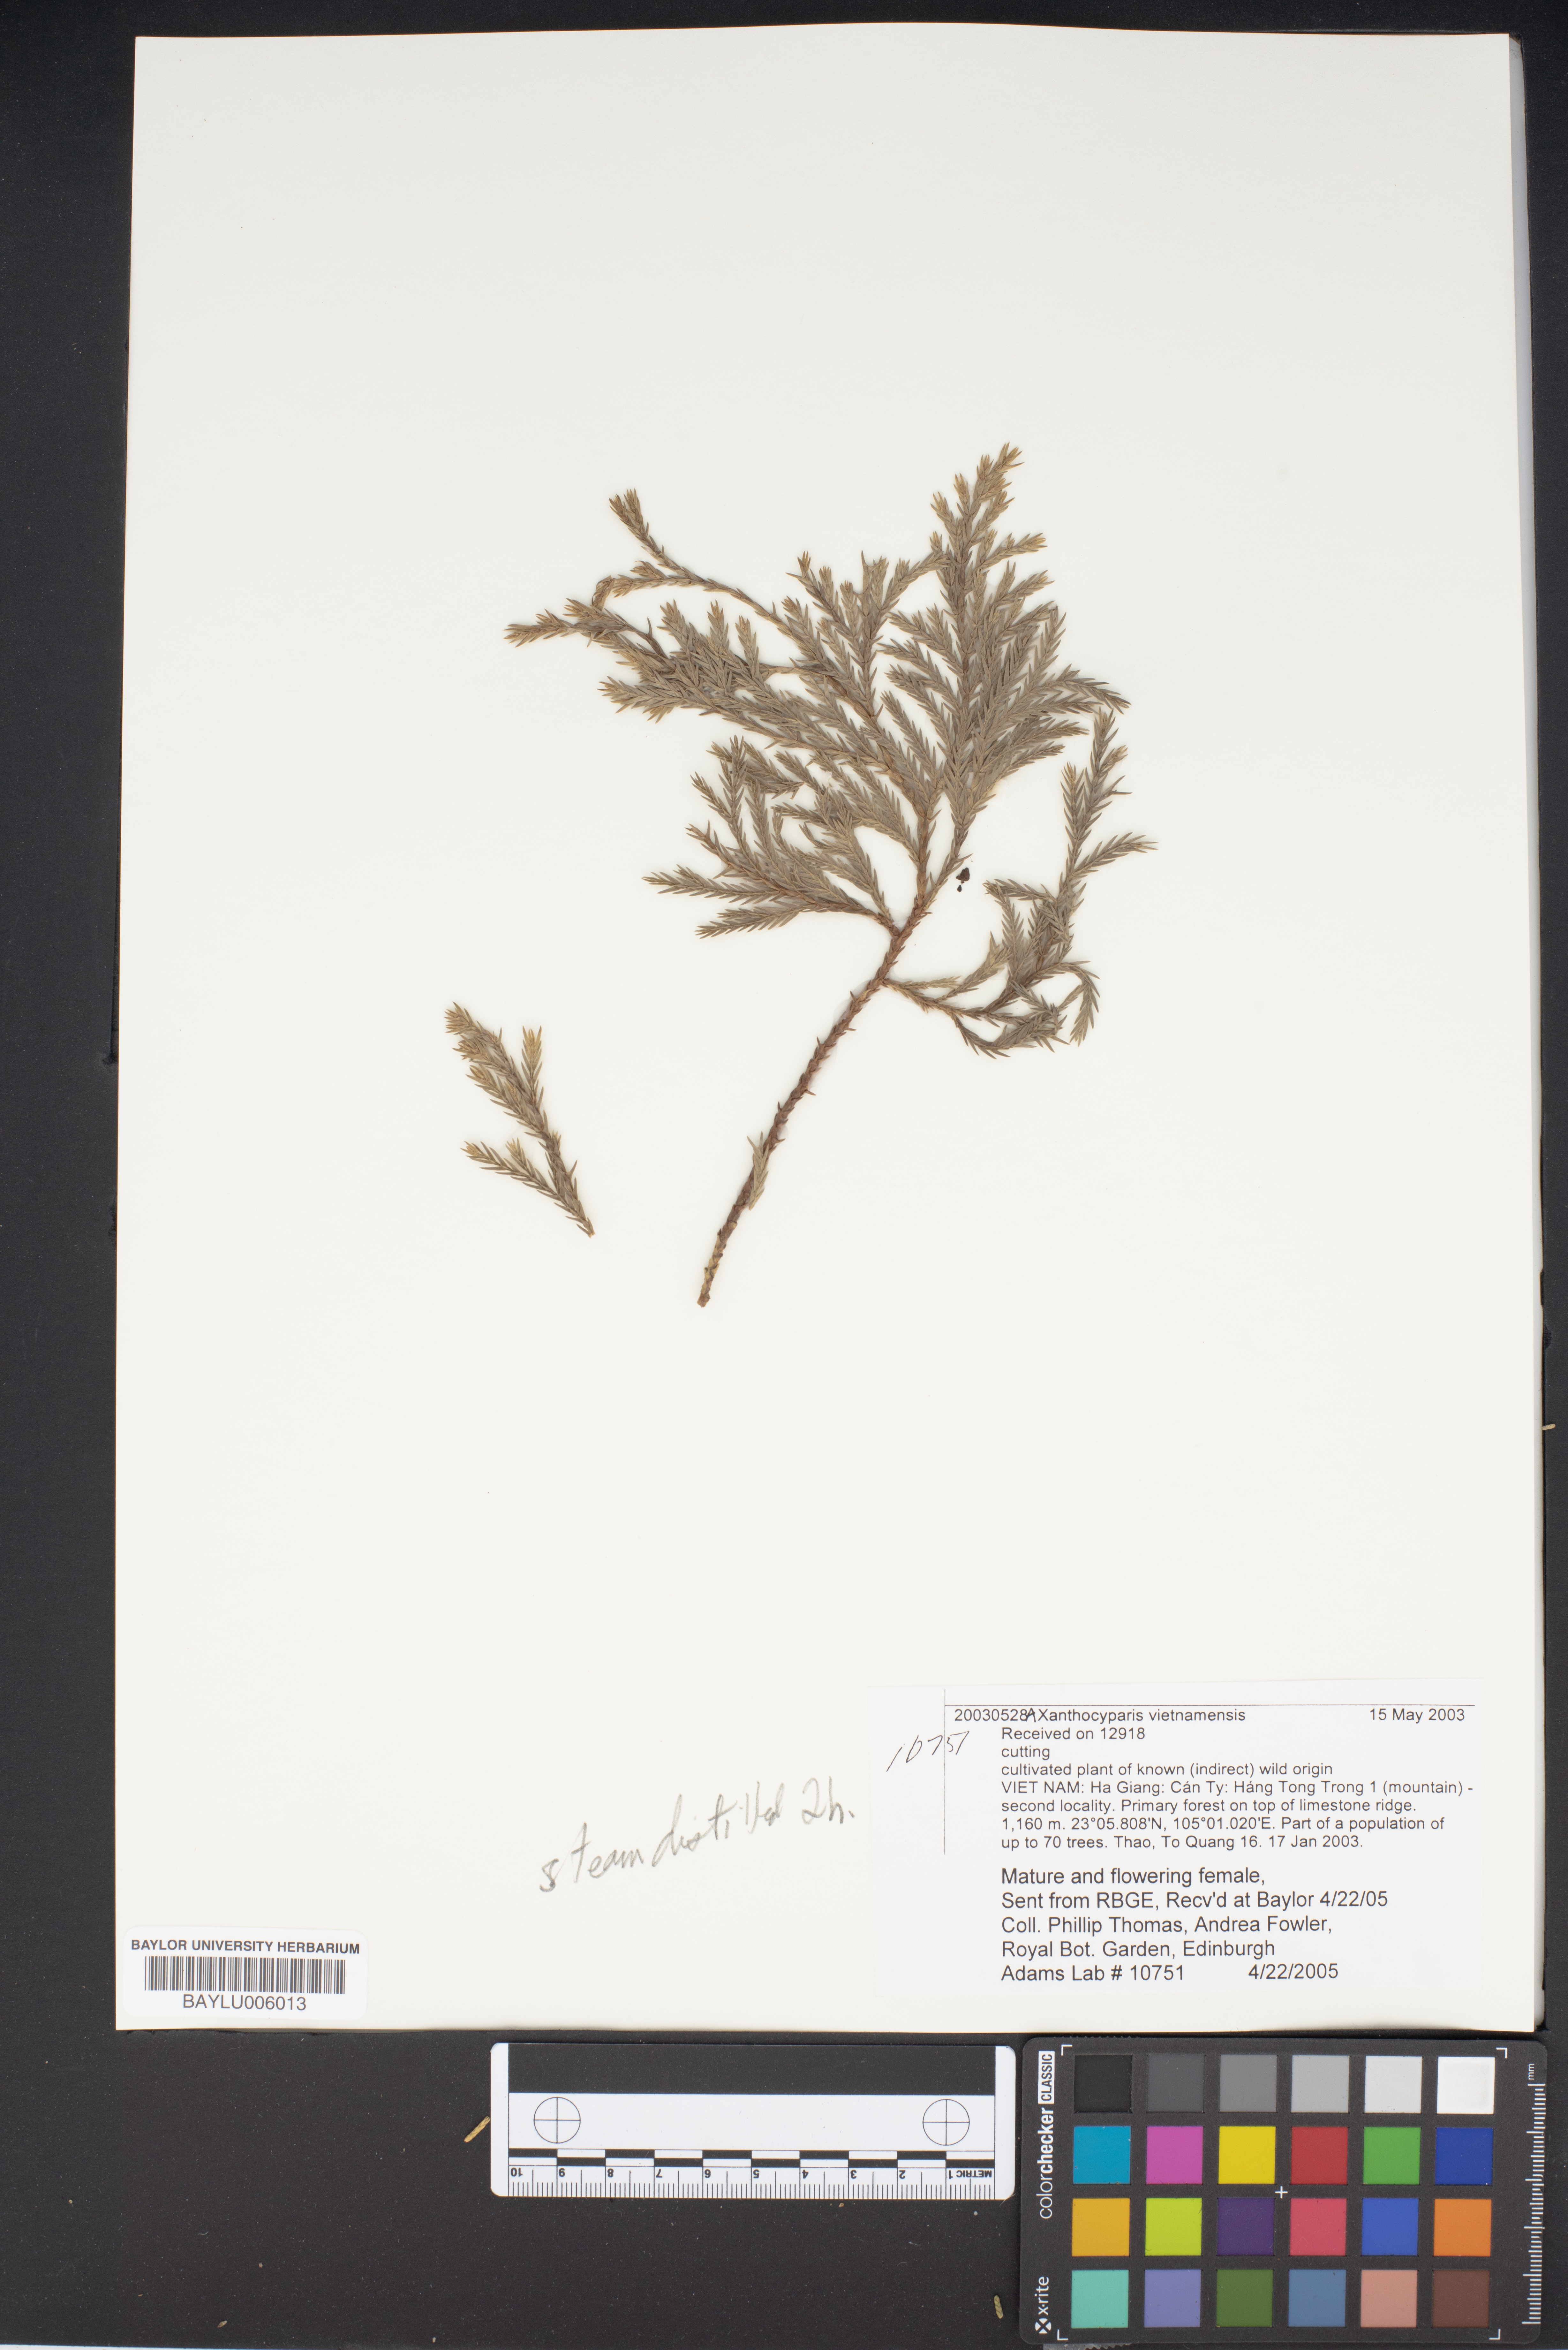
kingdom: Plantae
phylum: Tracheophyta
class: Pinopsida
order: Pinales
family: Cupressaceae
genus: Xanthocyparis
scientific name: Xanthocyparis vietnamensis
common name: Golden vietnamese cypress
